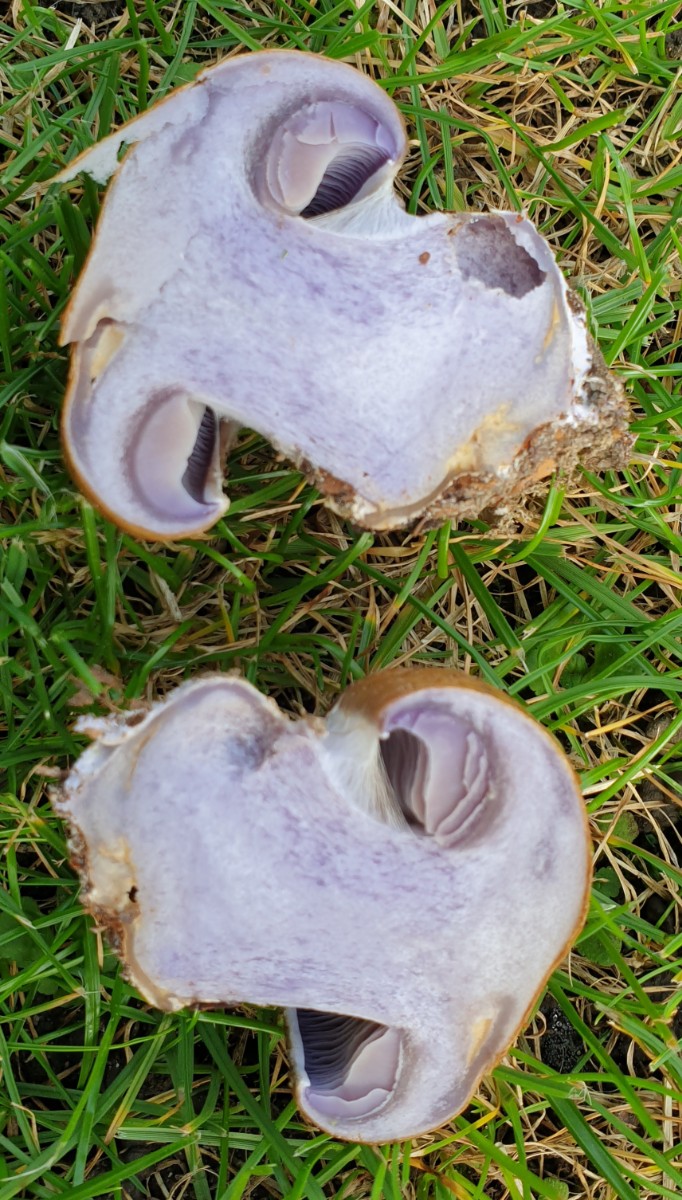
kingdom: Fungi
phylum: Basidiomycota
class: Agaricomycetes
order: Agaricales
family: Cortinariaceae
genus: Cortinarius
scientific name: Cortinarius anserinus
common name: bøge-slørhat
